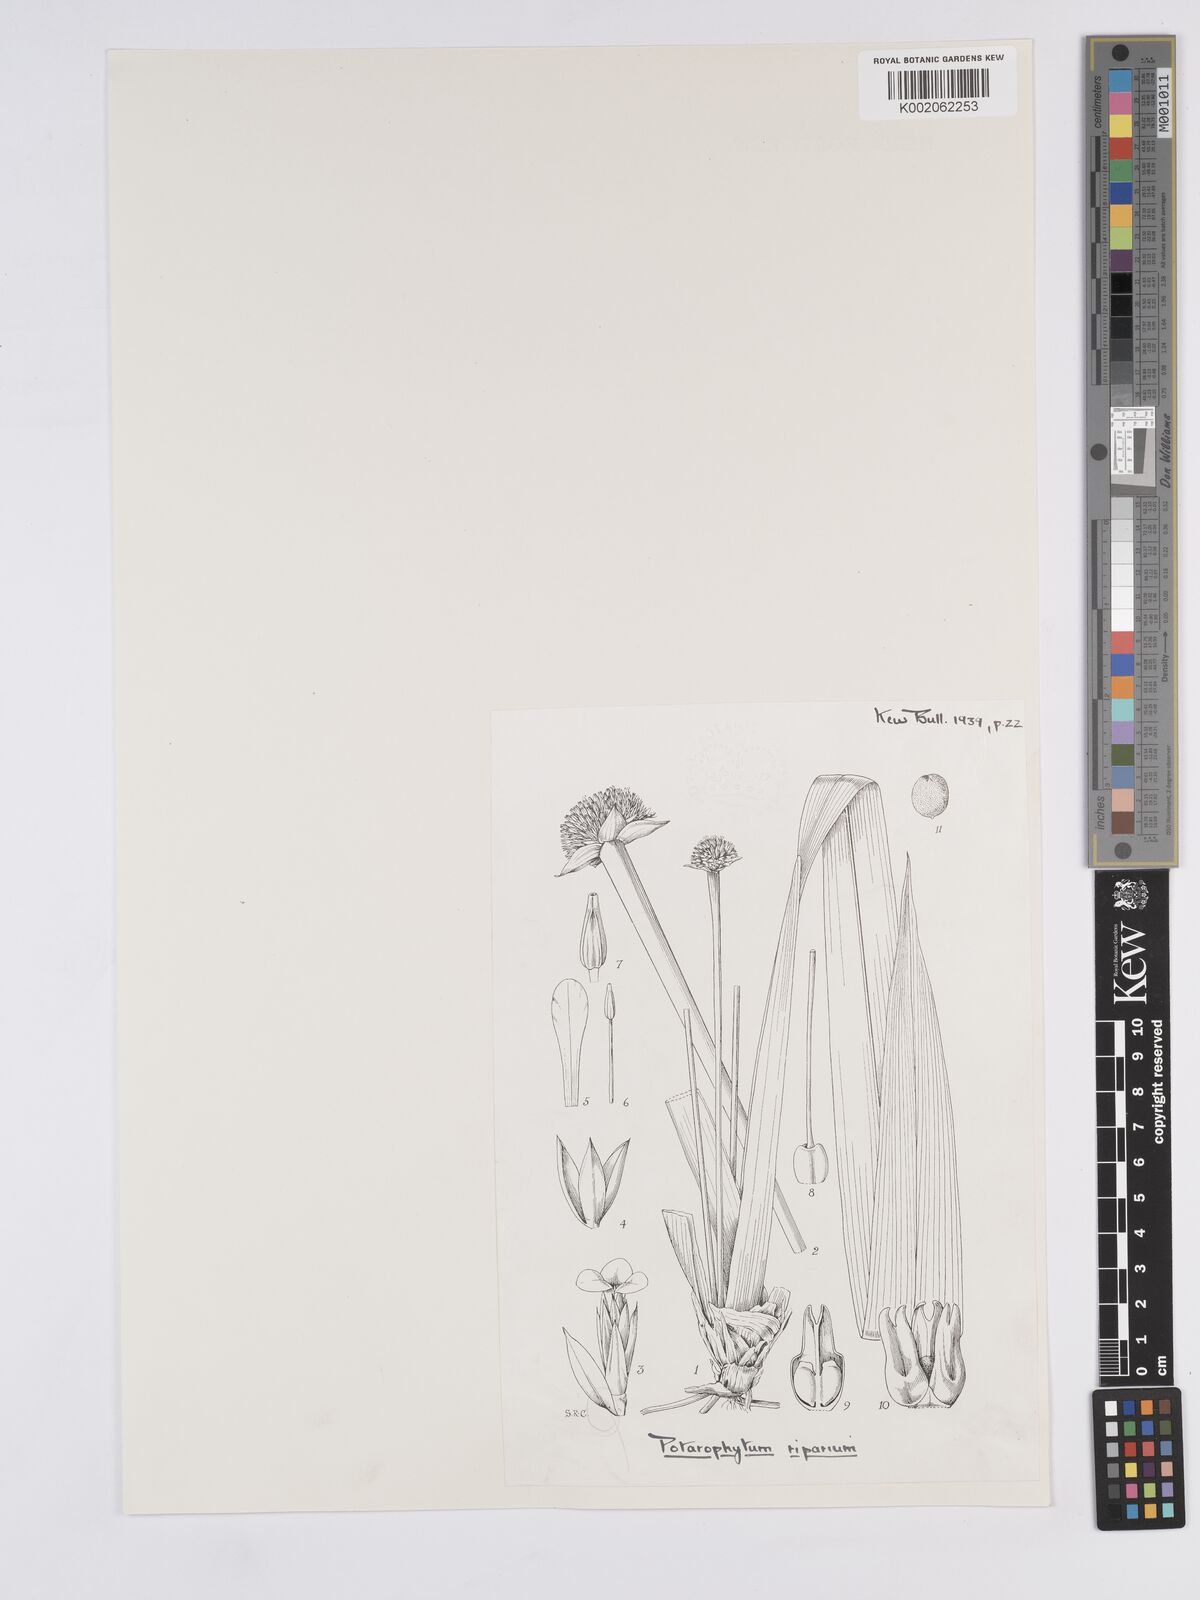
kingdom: Plantae
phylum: Tracheophyta
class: Liliopsida
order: Poales
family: Rapateaceae
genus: Potarophytum
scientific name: Potarophytum
